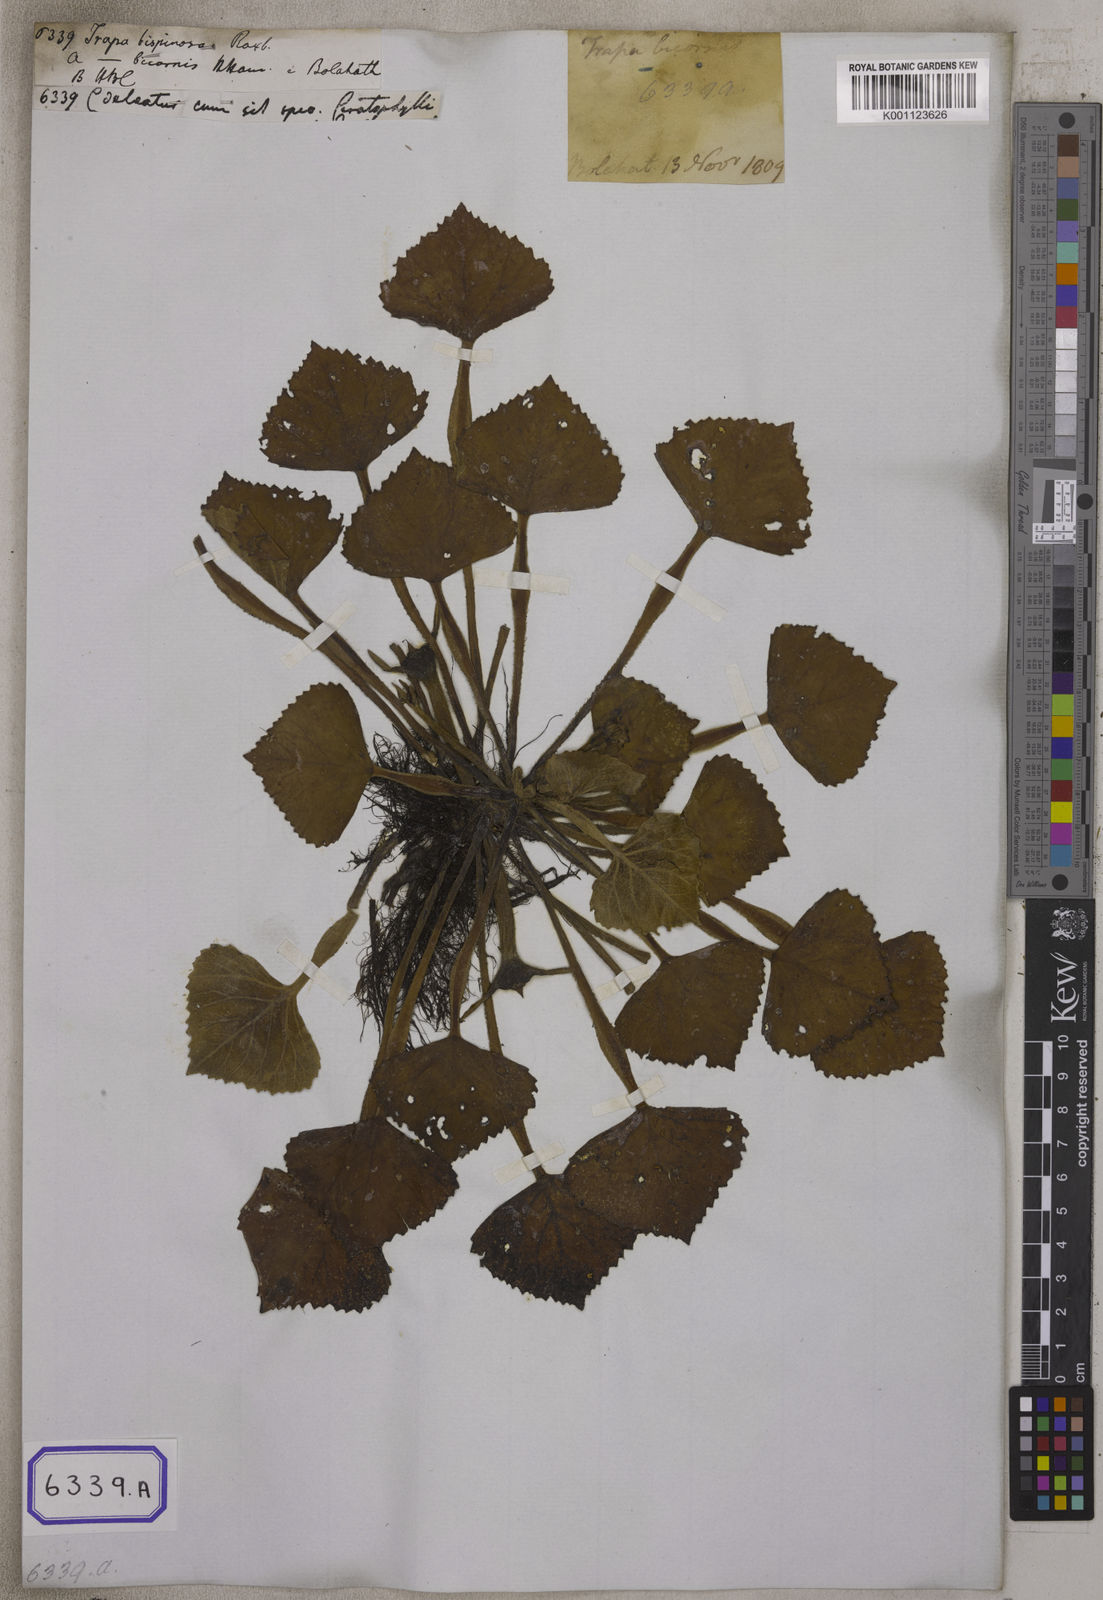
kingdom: Plantae
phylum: Tracheophyta
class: Magnoliopsida
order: Myrtales
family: Lythraceae
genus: Trapa
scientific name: Trapa natans
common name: Water chestnut
